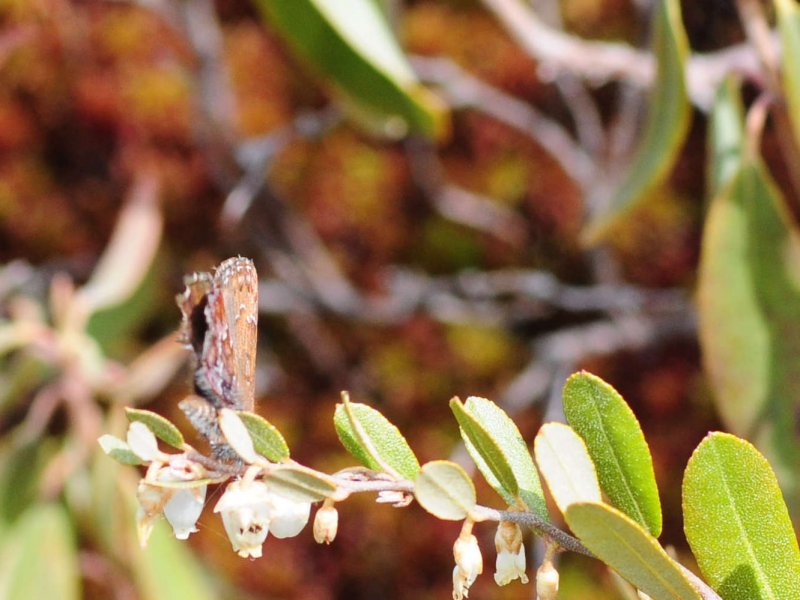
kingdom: Animalia
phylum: Arthropoda
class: Insecta
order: Lepidoptera
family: Lycaenidae
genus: Incisalia
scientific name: Incisalia niphon
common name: Eastern Pine Elfin
